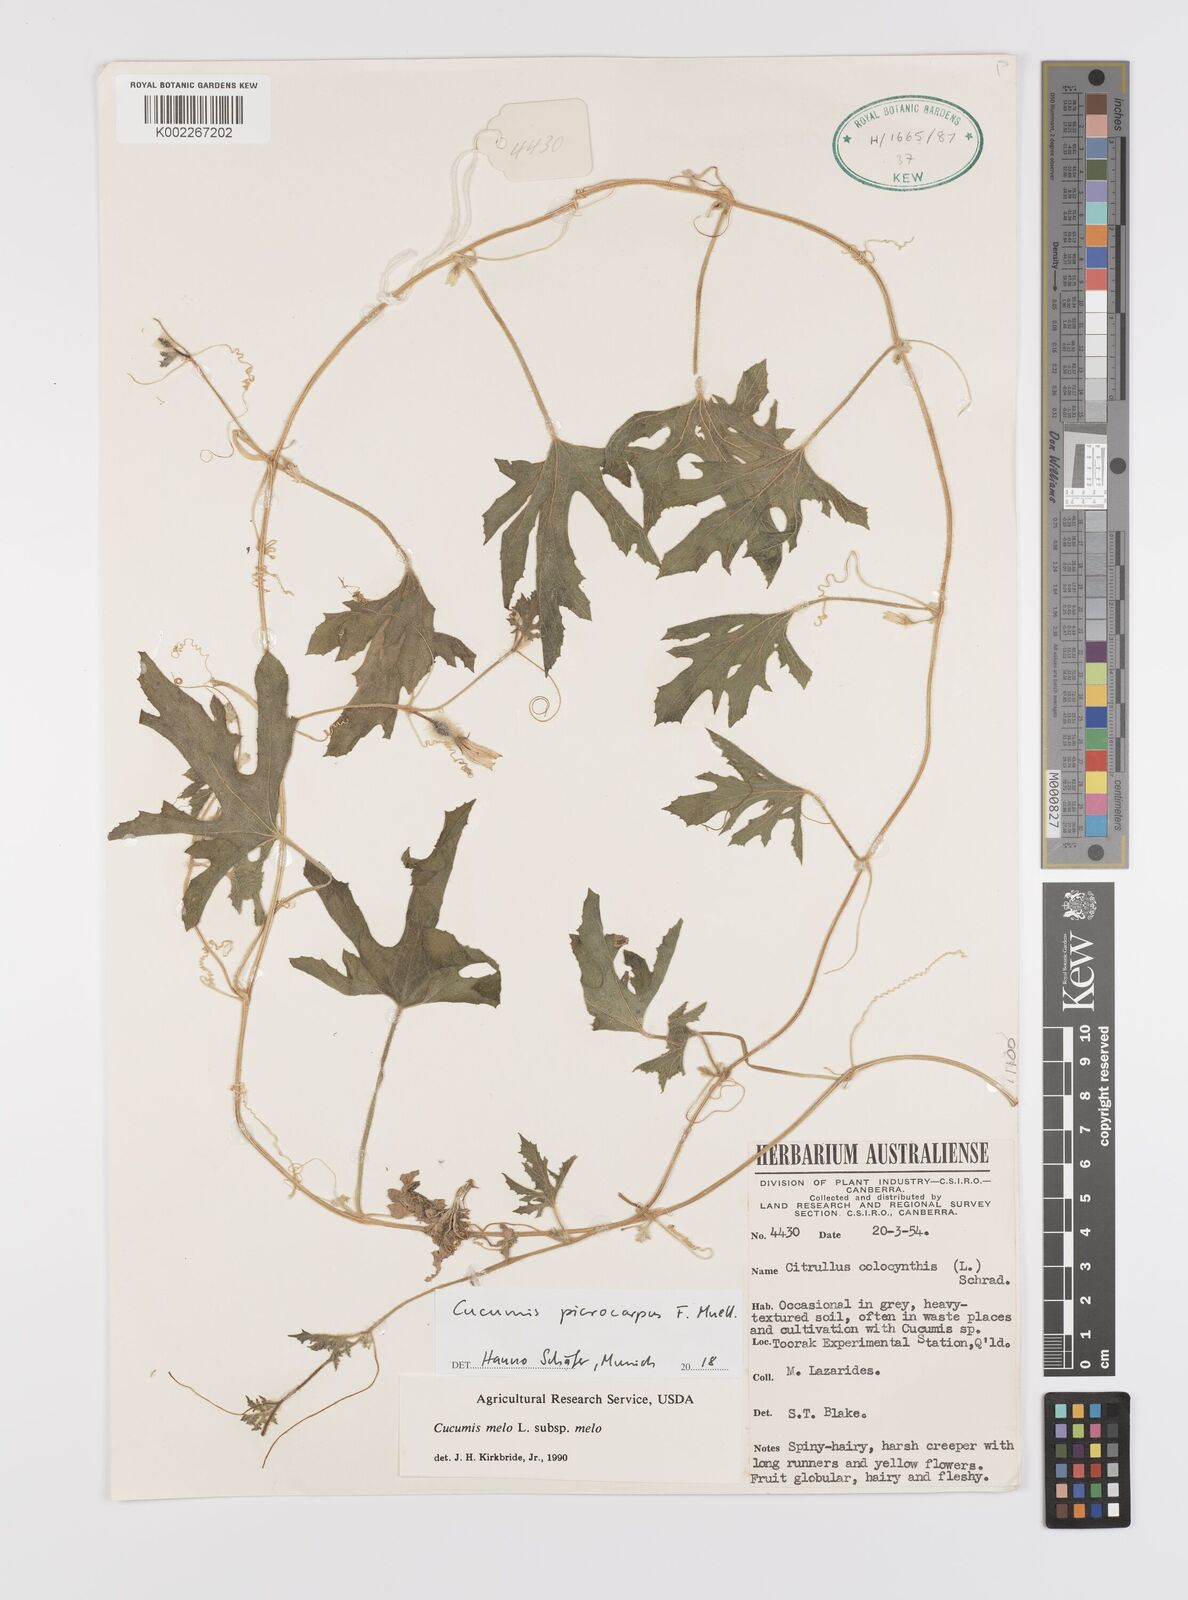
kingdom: Plantae
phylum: Tracheophyta
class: Magnoliopsida
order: Cucurbitales
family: Cucurbitaceae
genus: Cucumis
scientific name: Cucumis picrocarpus
